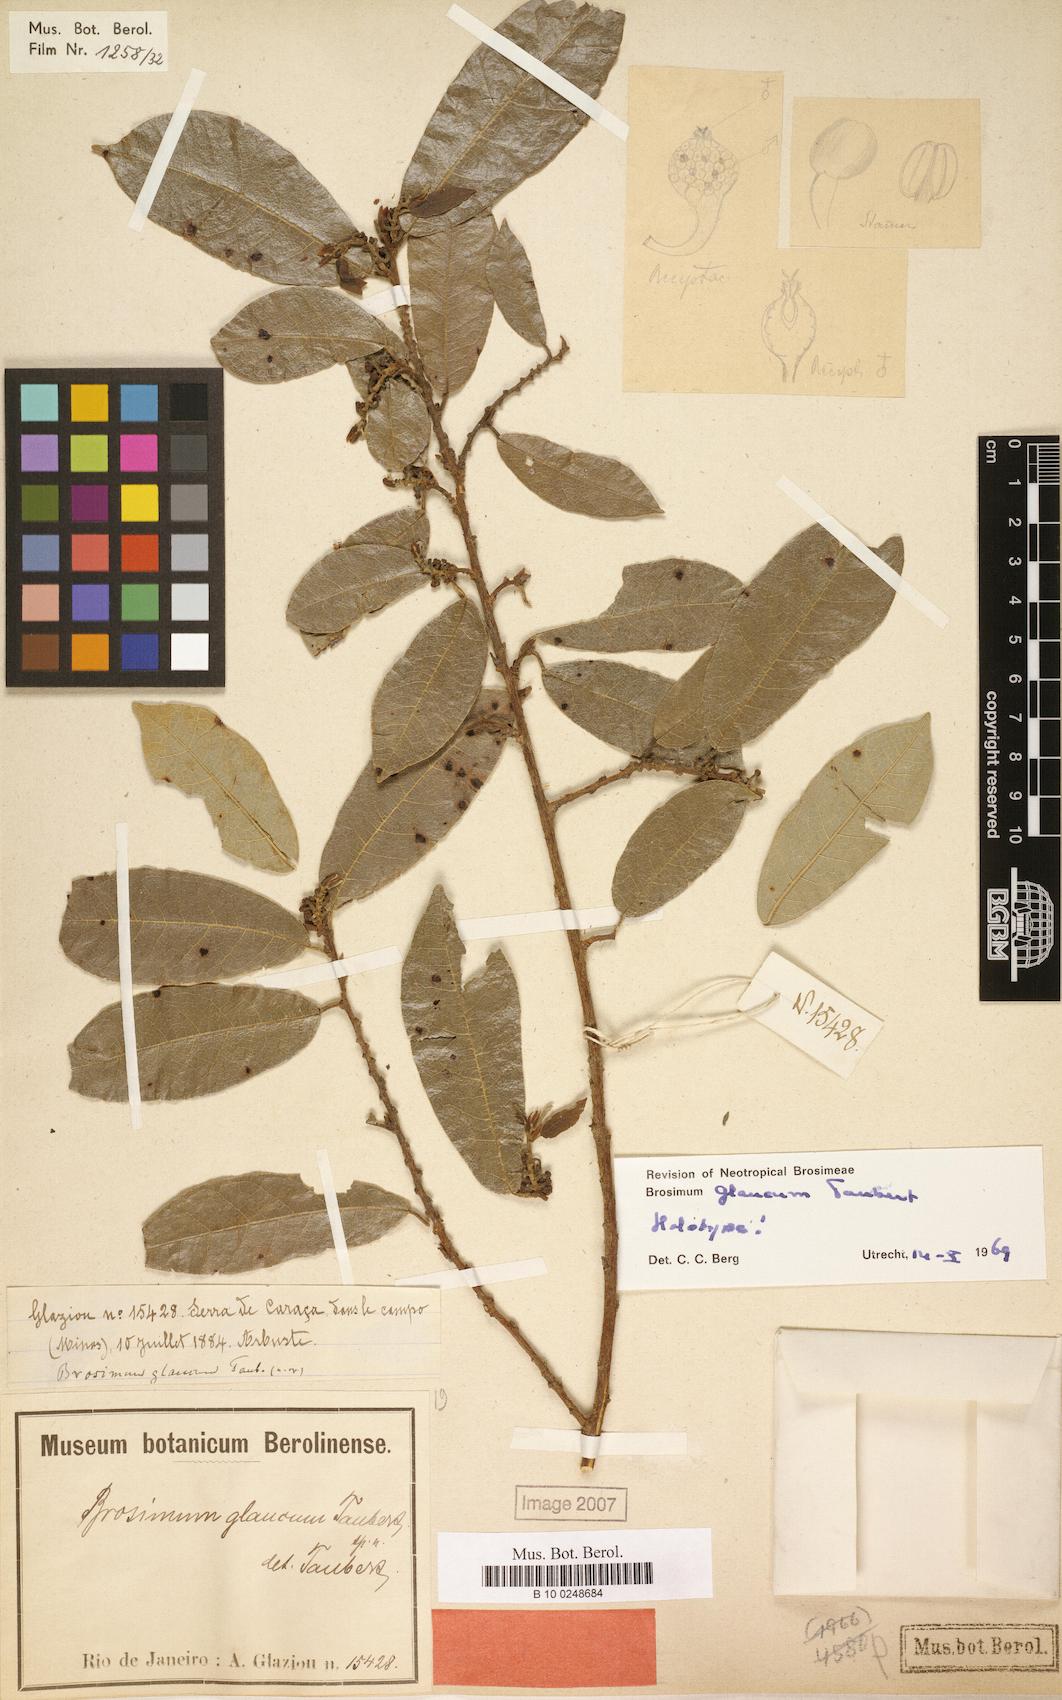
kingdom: Plantae
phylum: Tracheophyta
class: Magnoliopsida
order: Rosales
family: Moraceae
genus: Brosimum
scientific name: Brosimum glaucum
